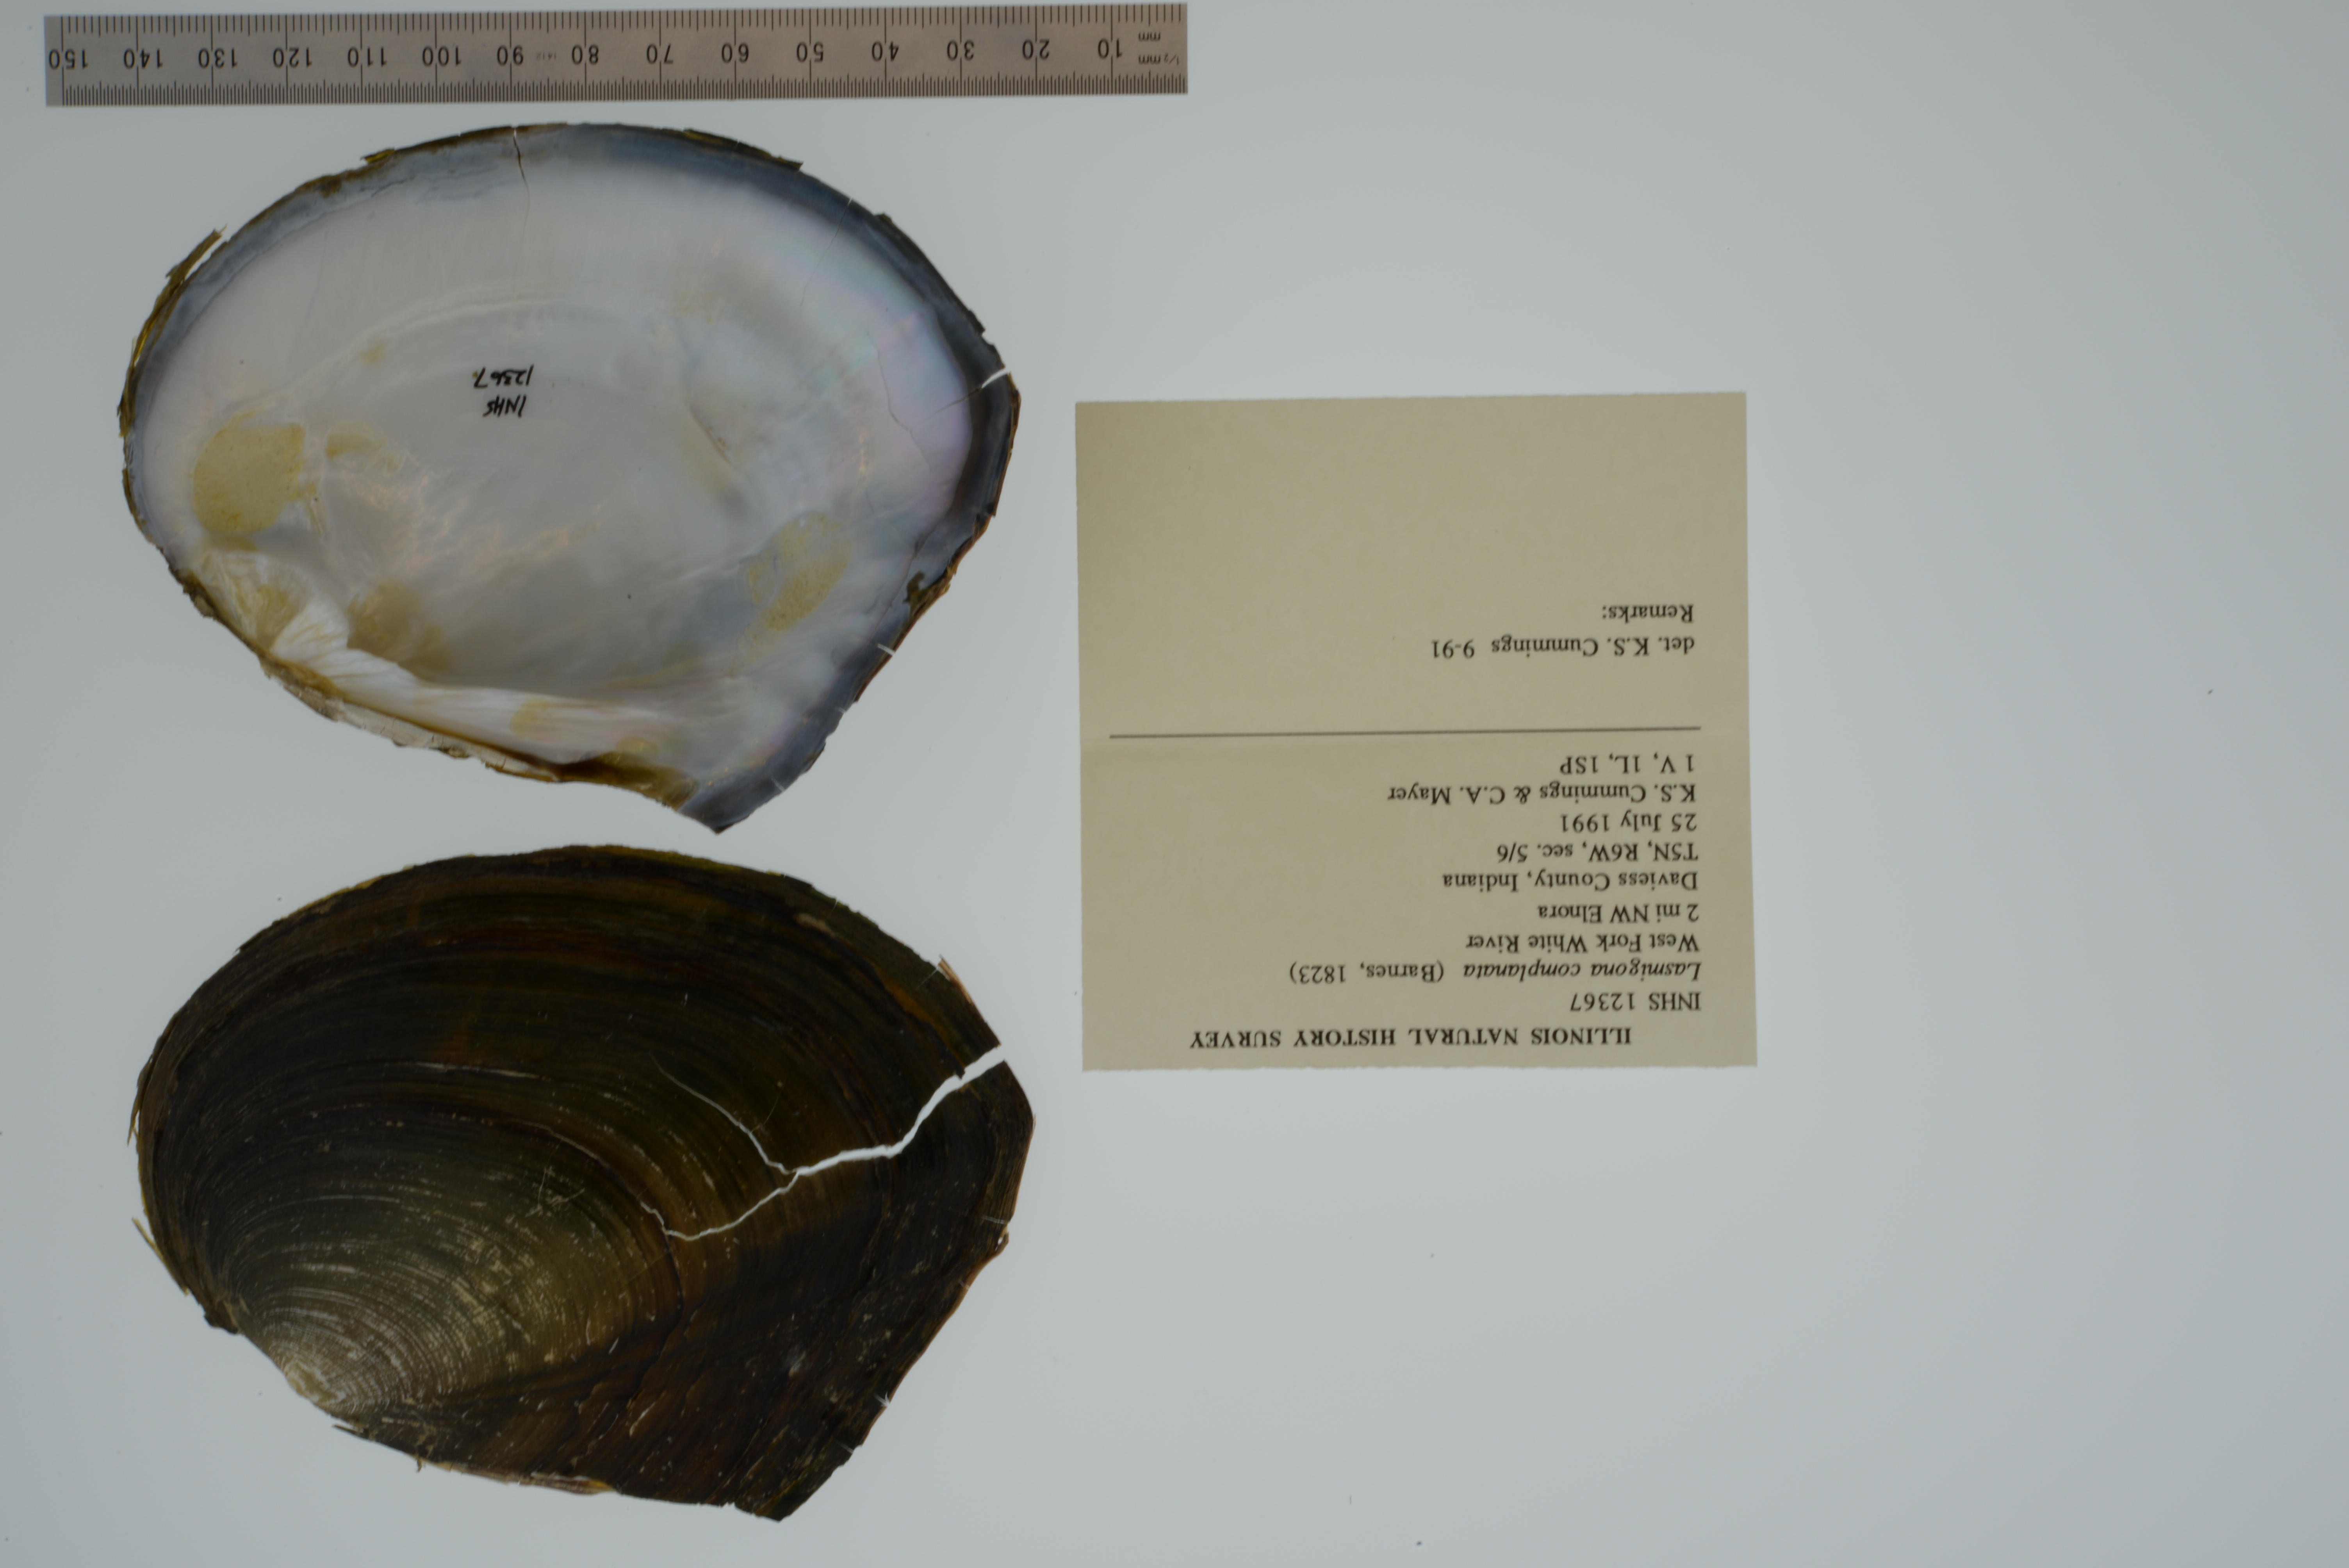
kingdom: Animalia
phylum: Mollusca
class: Bivalvia
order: Unionida
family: Unionidae
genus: Lasmigona
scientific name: Lasmigona complanata
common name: White heelsplitter
